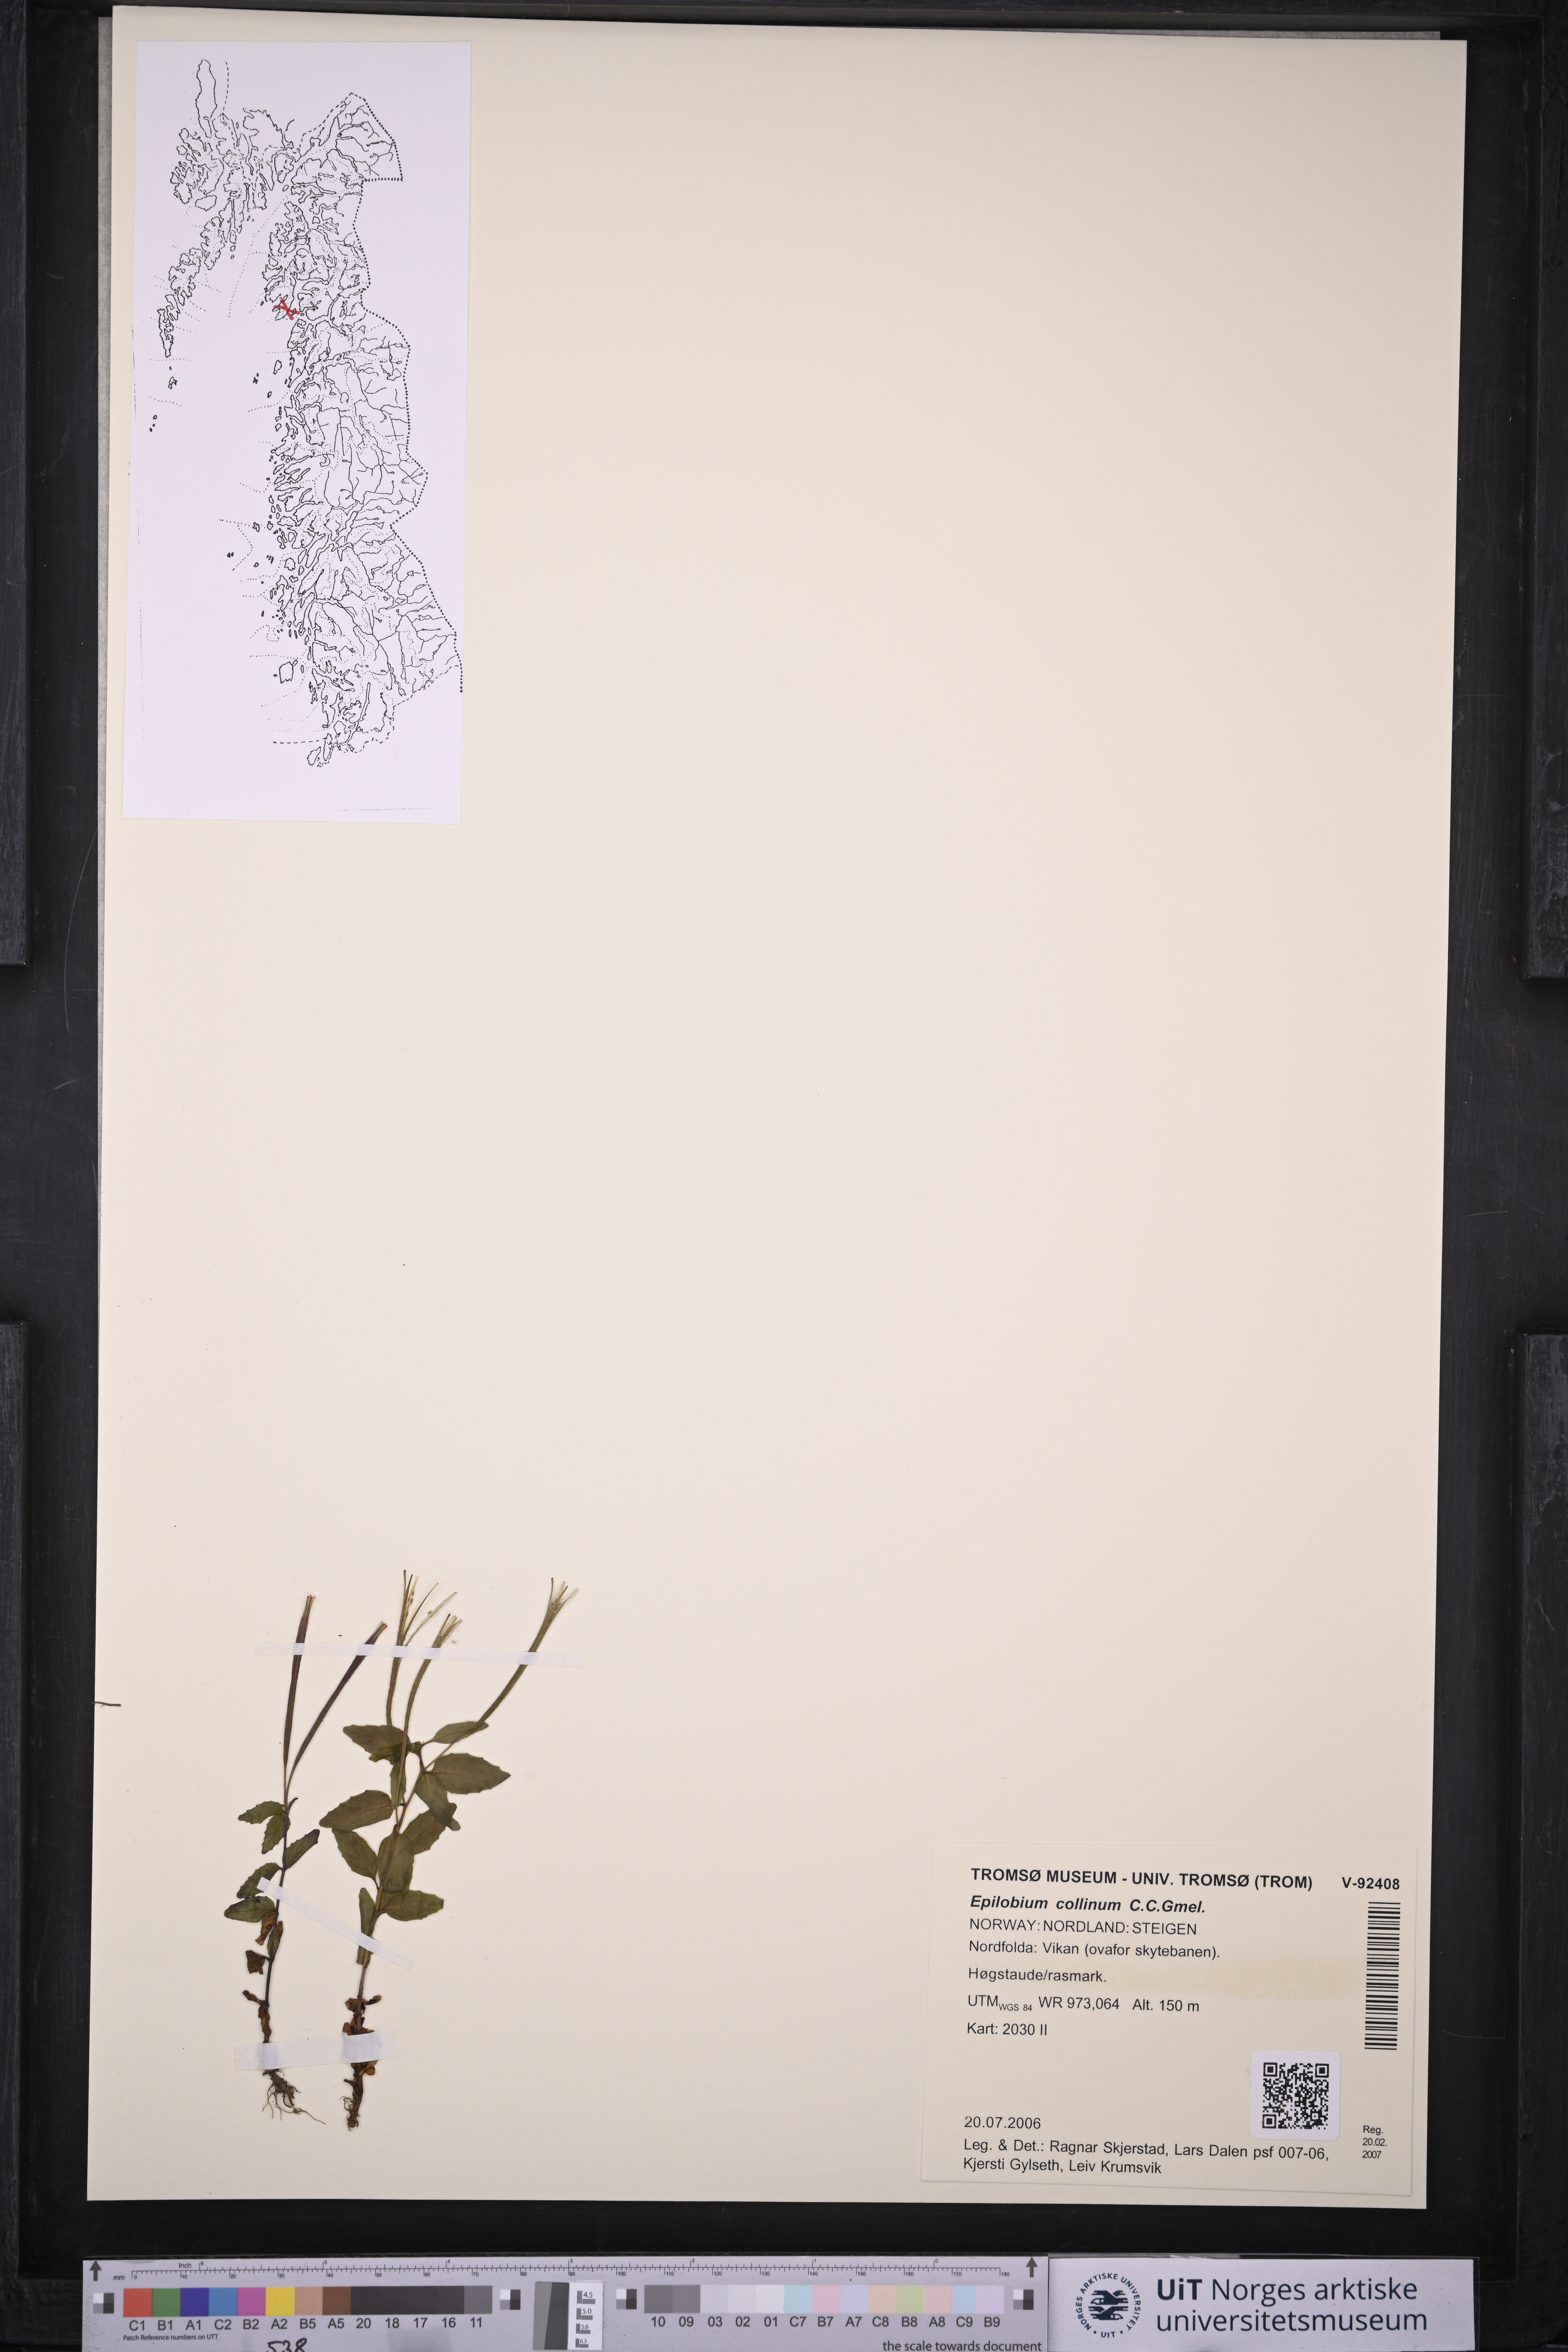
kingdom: Plantae
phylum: Tracheophyta
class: Magnoliopsida
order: Myrtales
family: Onagraceae
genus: Epilobium
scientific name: Epilobium collinum
